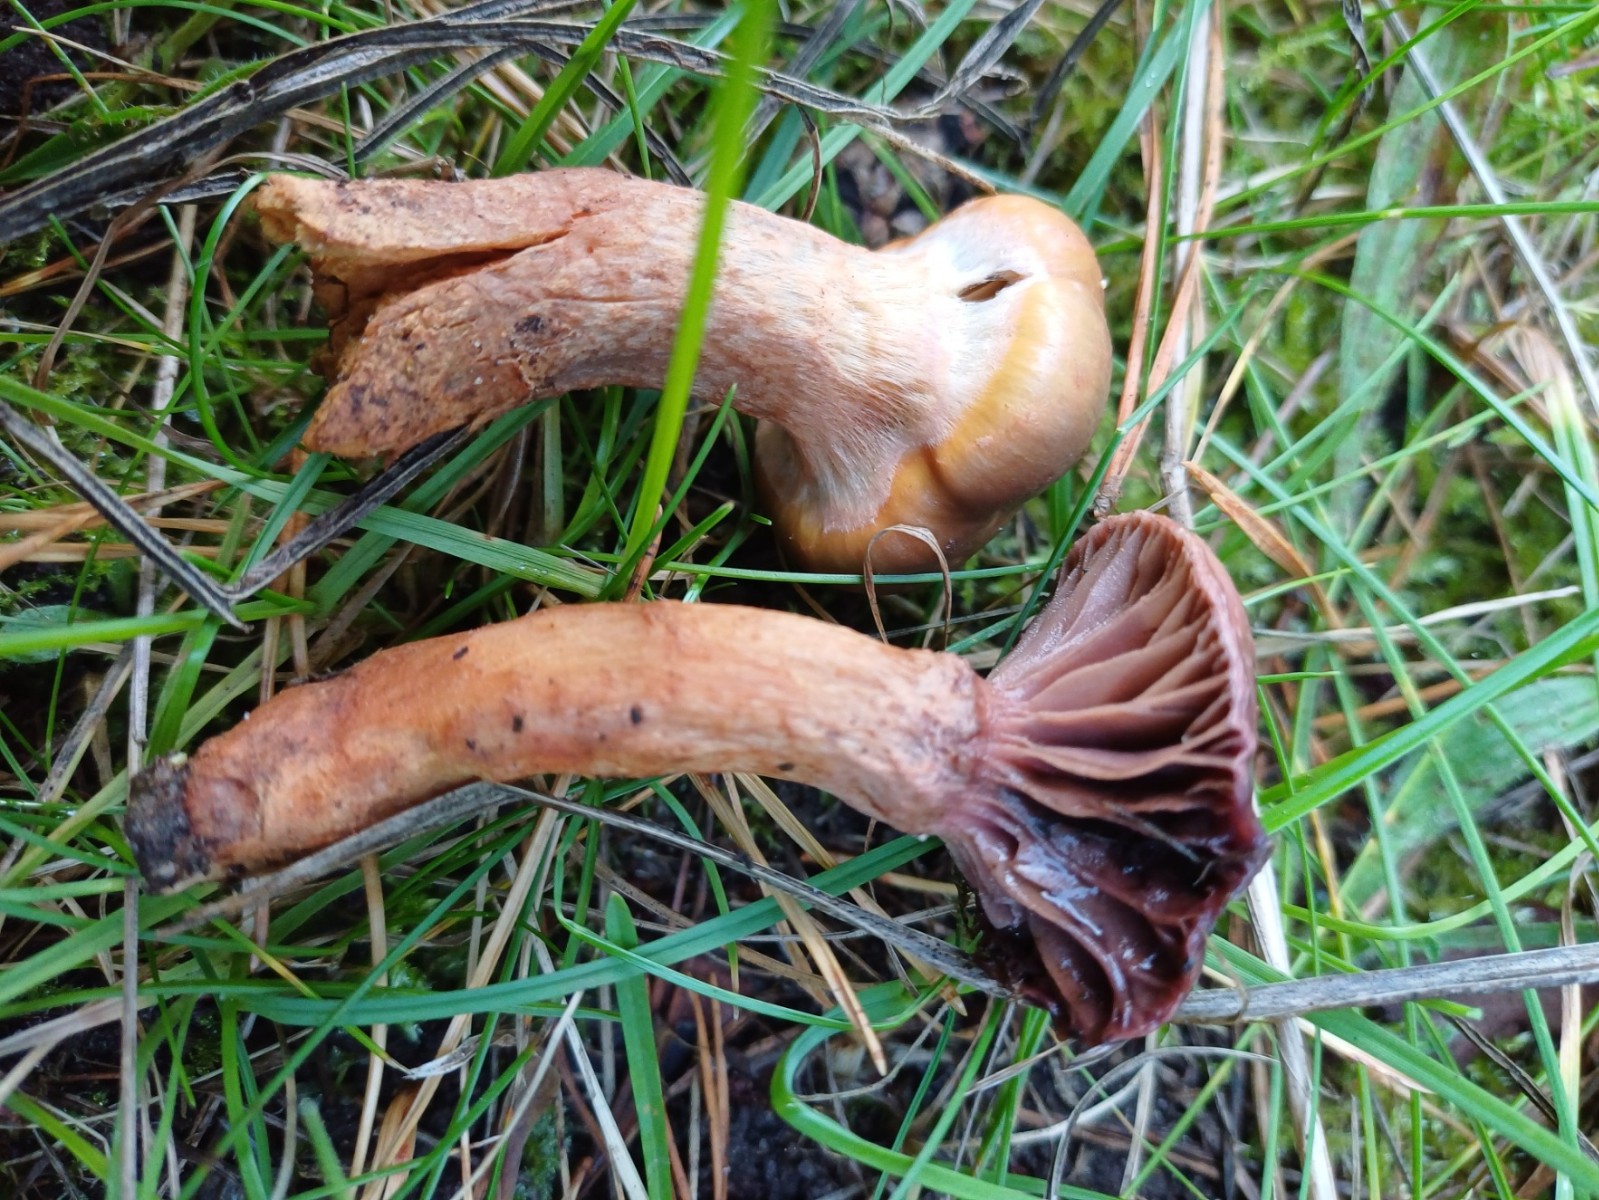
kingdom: Fungi
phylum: Basidiomycota
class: Agaricomycetes
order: Boletales
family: Gomphidiaceae
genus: Chroogomphus
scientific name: Chroogomphus rutilus
